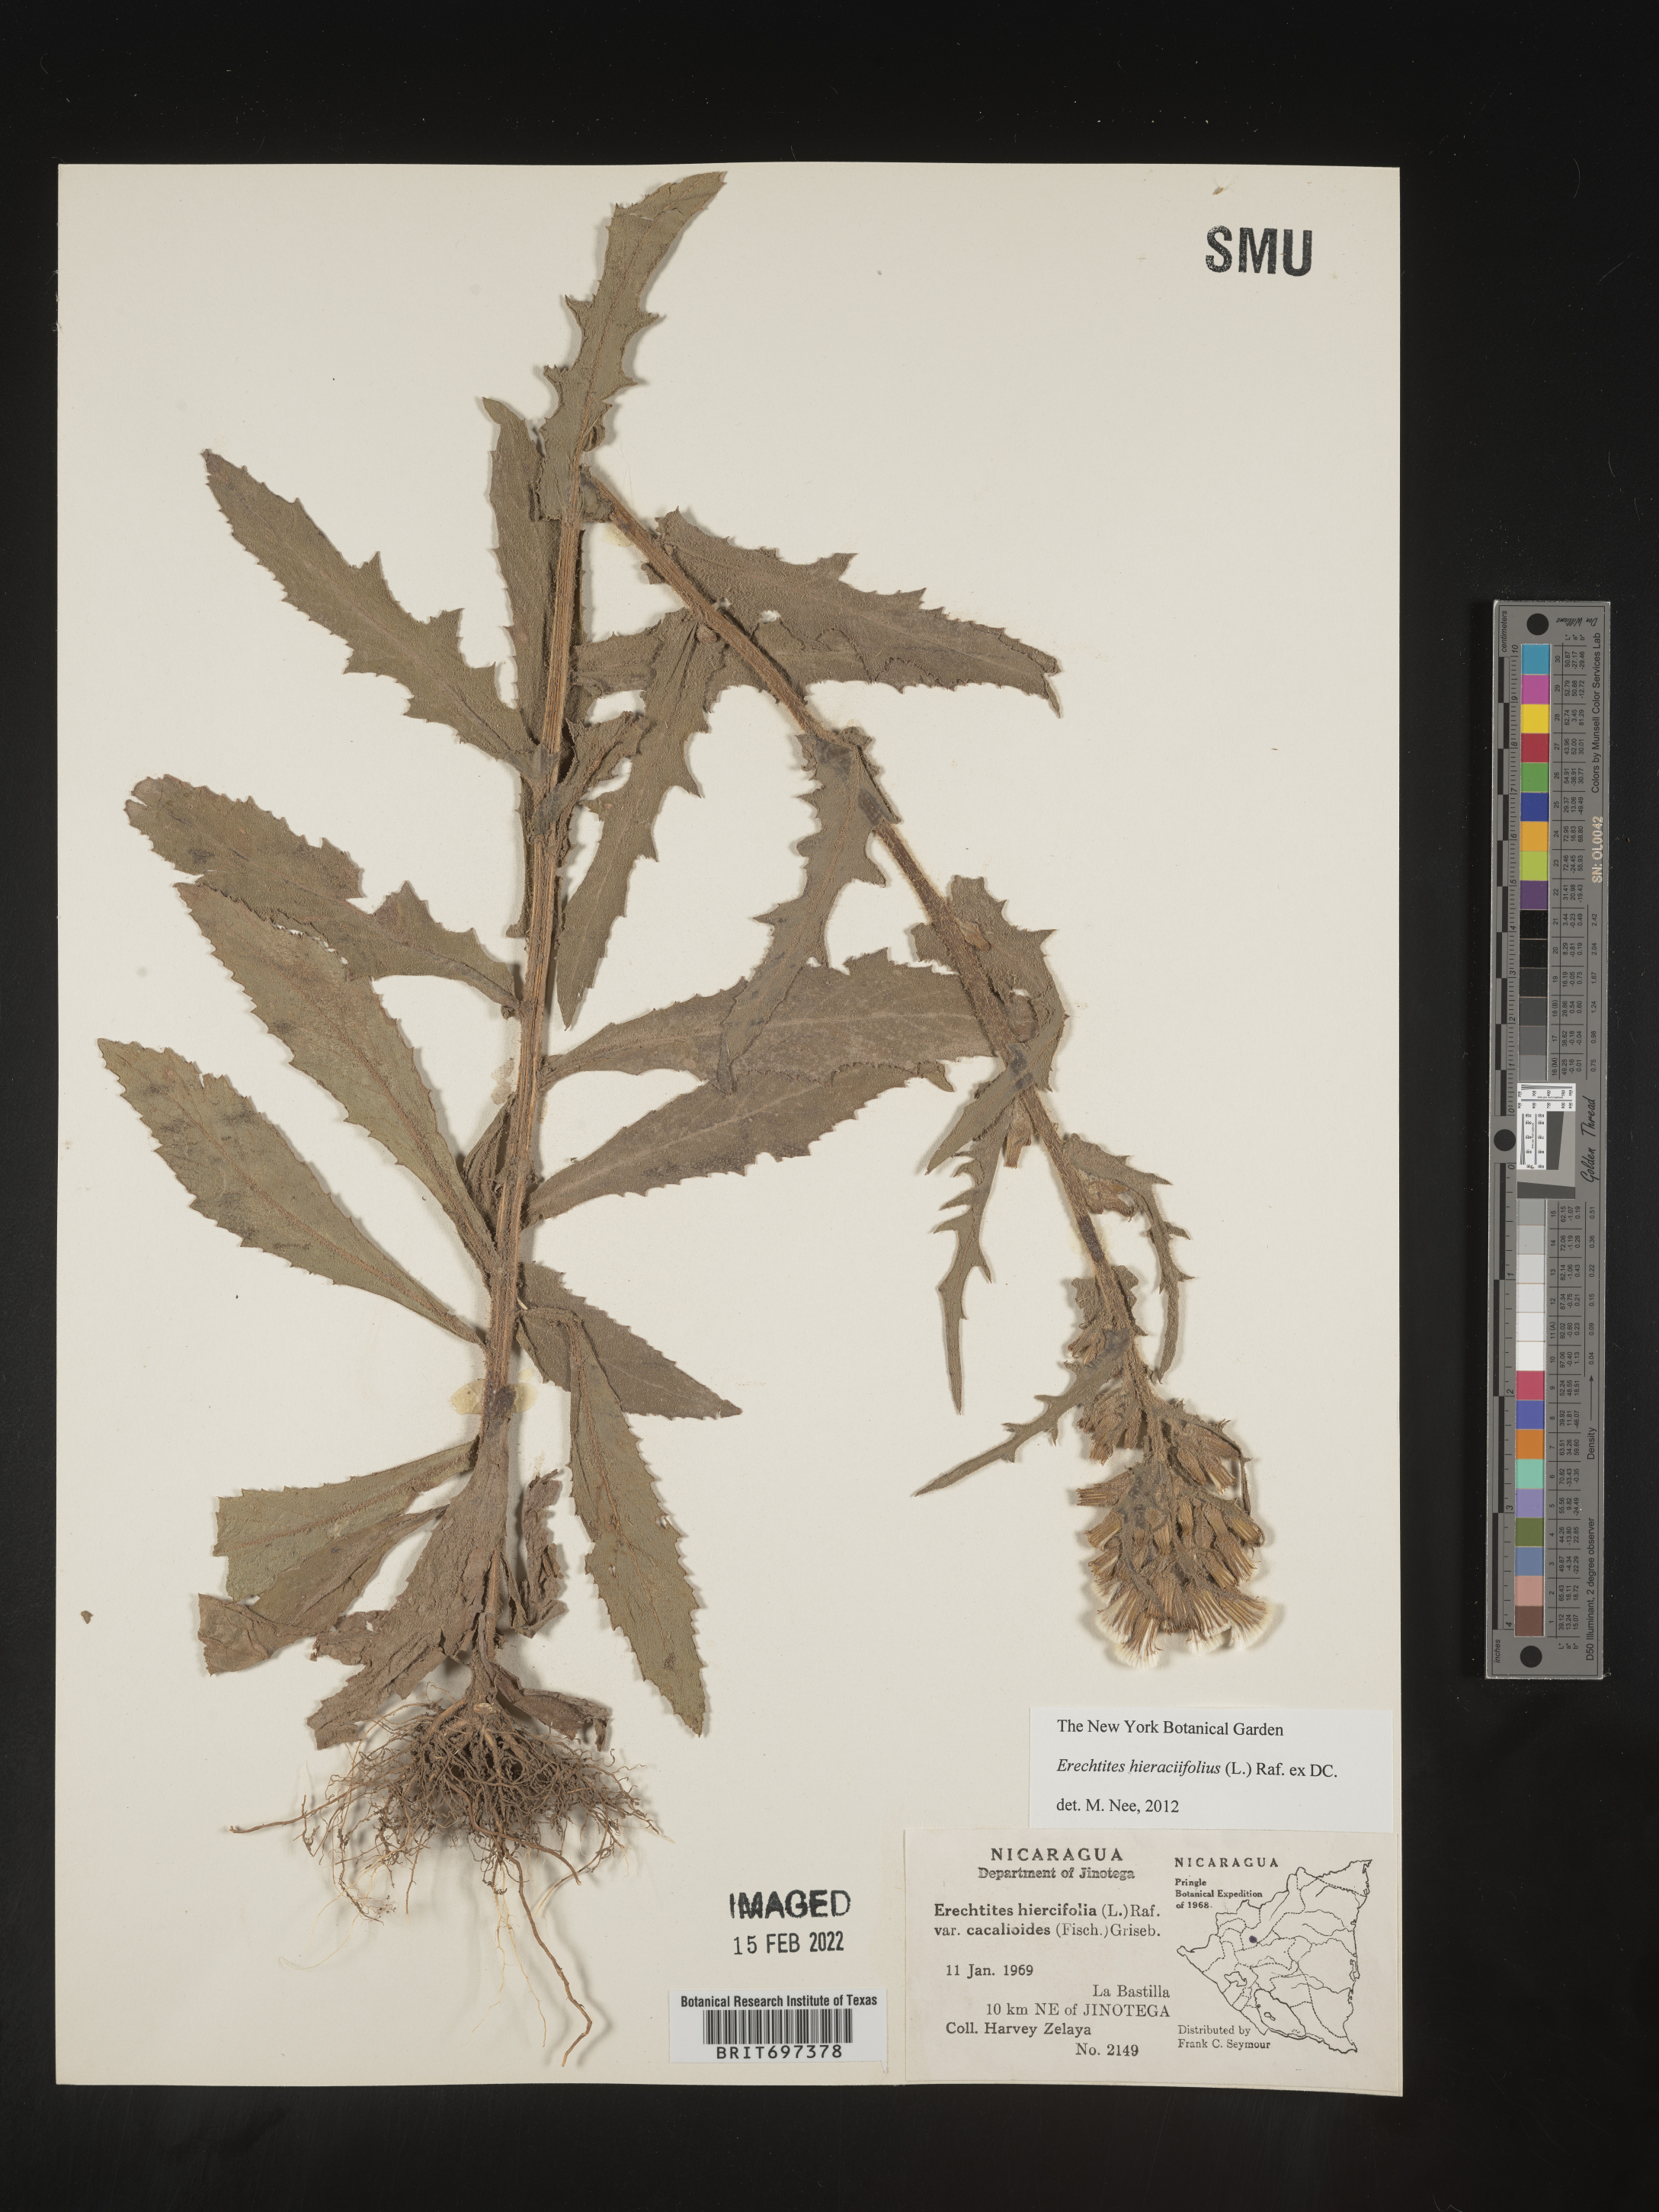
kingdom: Plantae
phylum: Tracheophyta
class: Magnoliopsida
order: Asterales
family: Asteraceae
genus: Erechtites
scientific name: Erechtites
